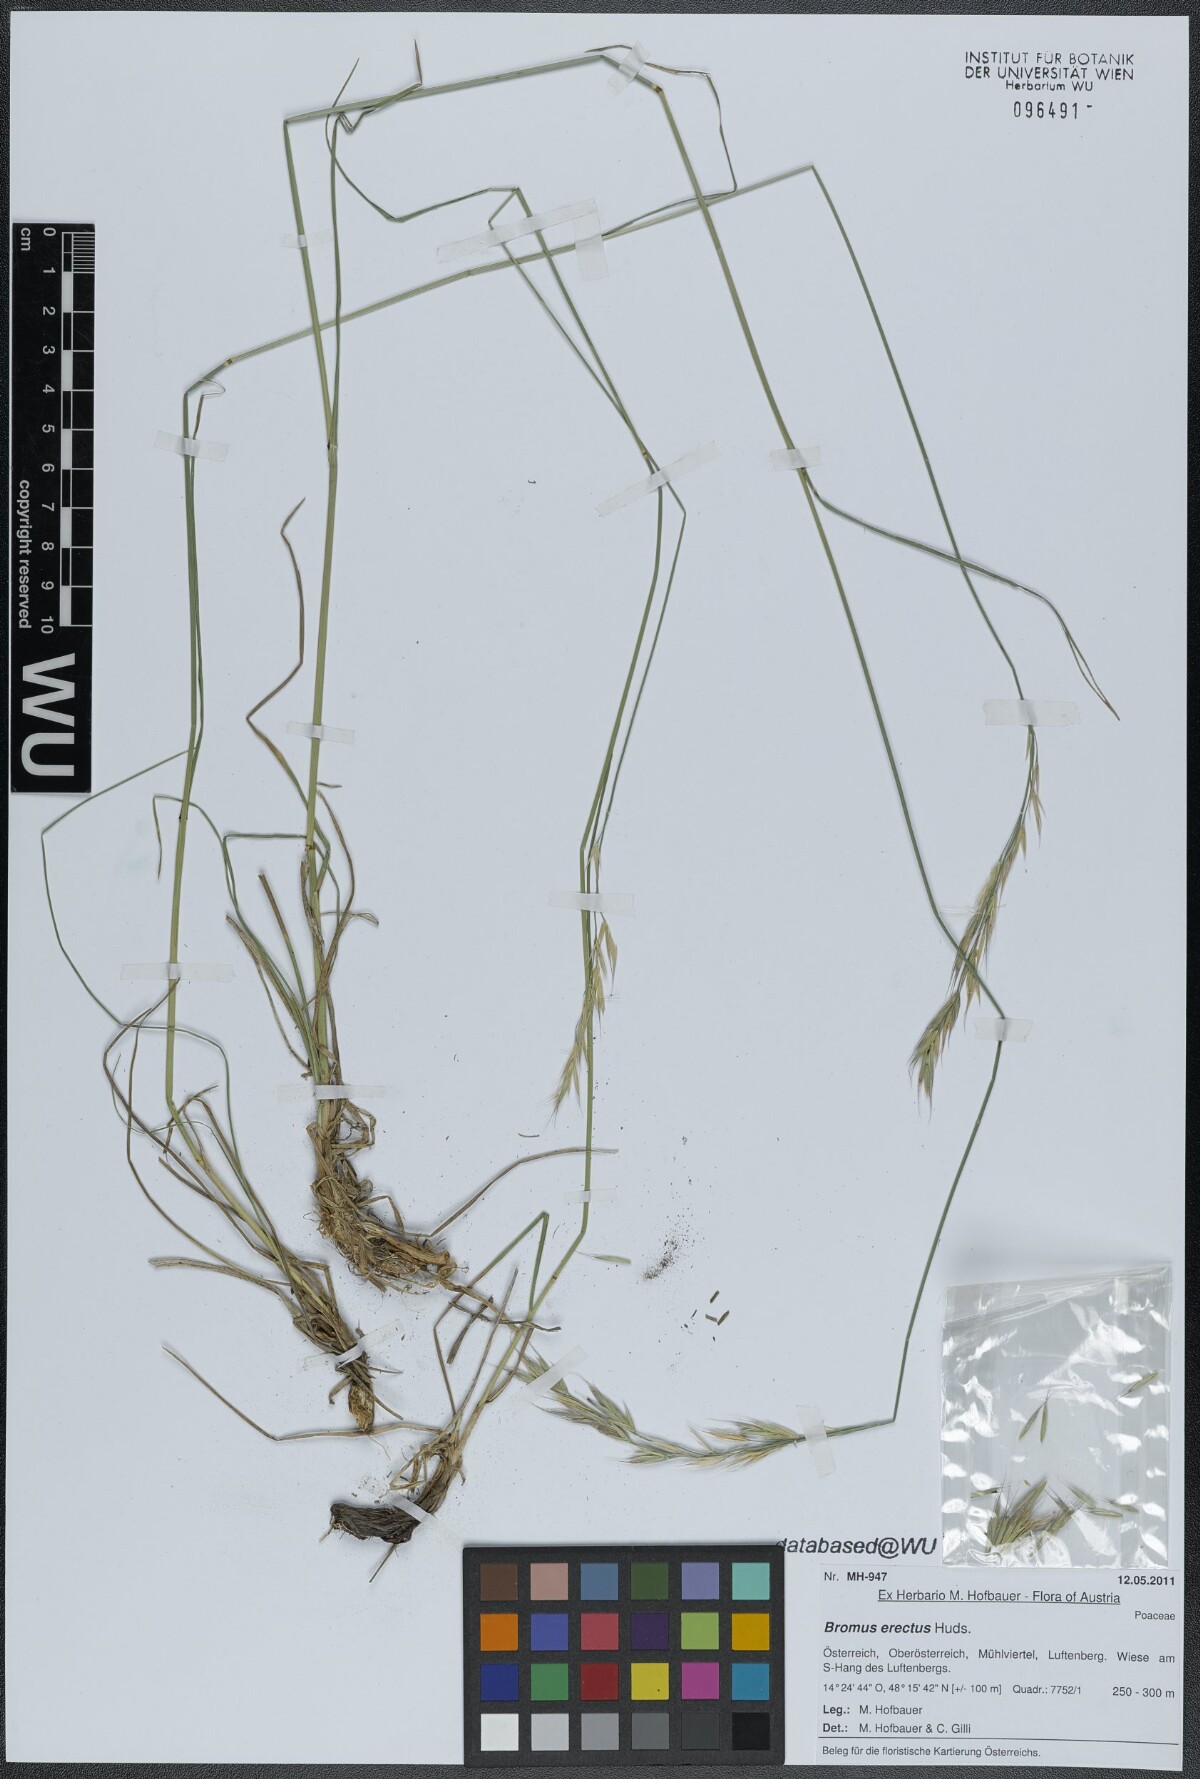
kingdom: Plantae
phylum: Tracheophyta
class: Liliopsida
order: Poales
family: Poaceae
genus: Bromus
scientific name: Bromus erectus
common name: Erect brome
